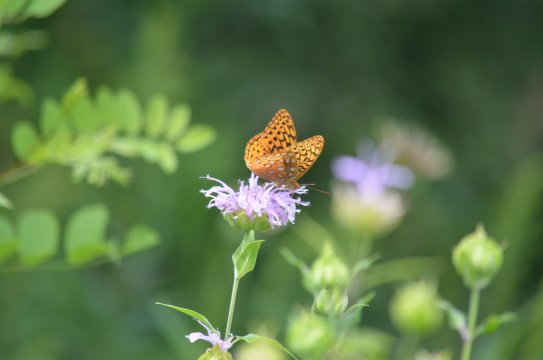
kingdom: Animalia
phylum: Arthropoda
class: Insecta
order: Lepidoptera
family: Nymphalidae
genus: Speyeria
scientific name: Speyeria cybele
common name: Great Spangled Fritillary
